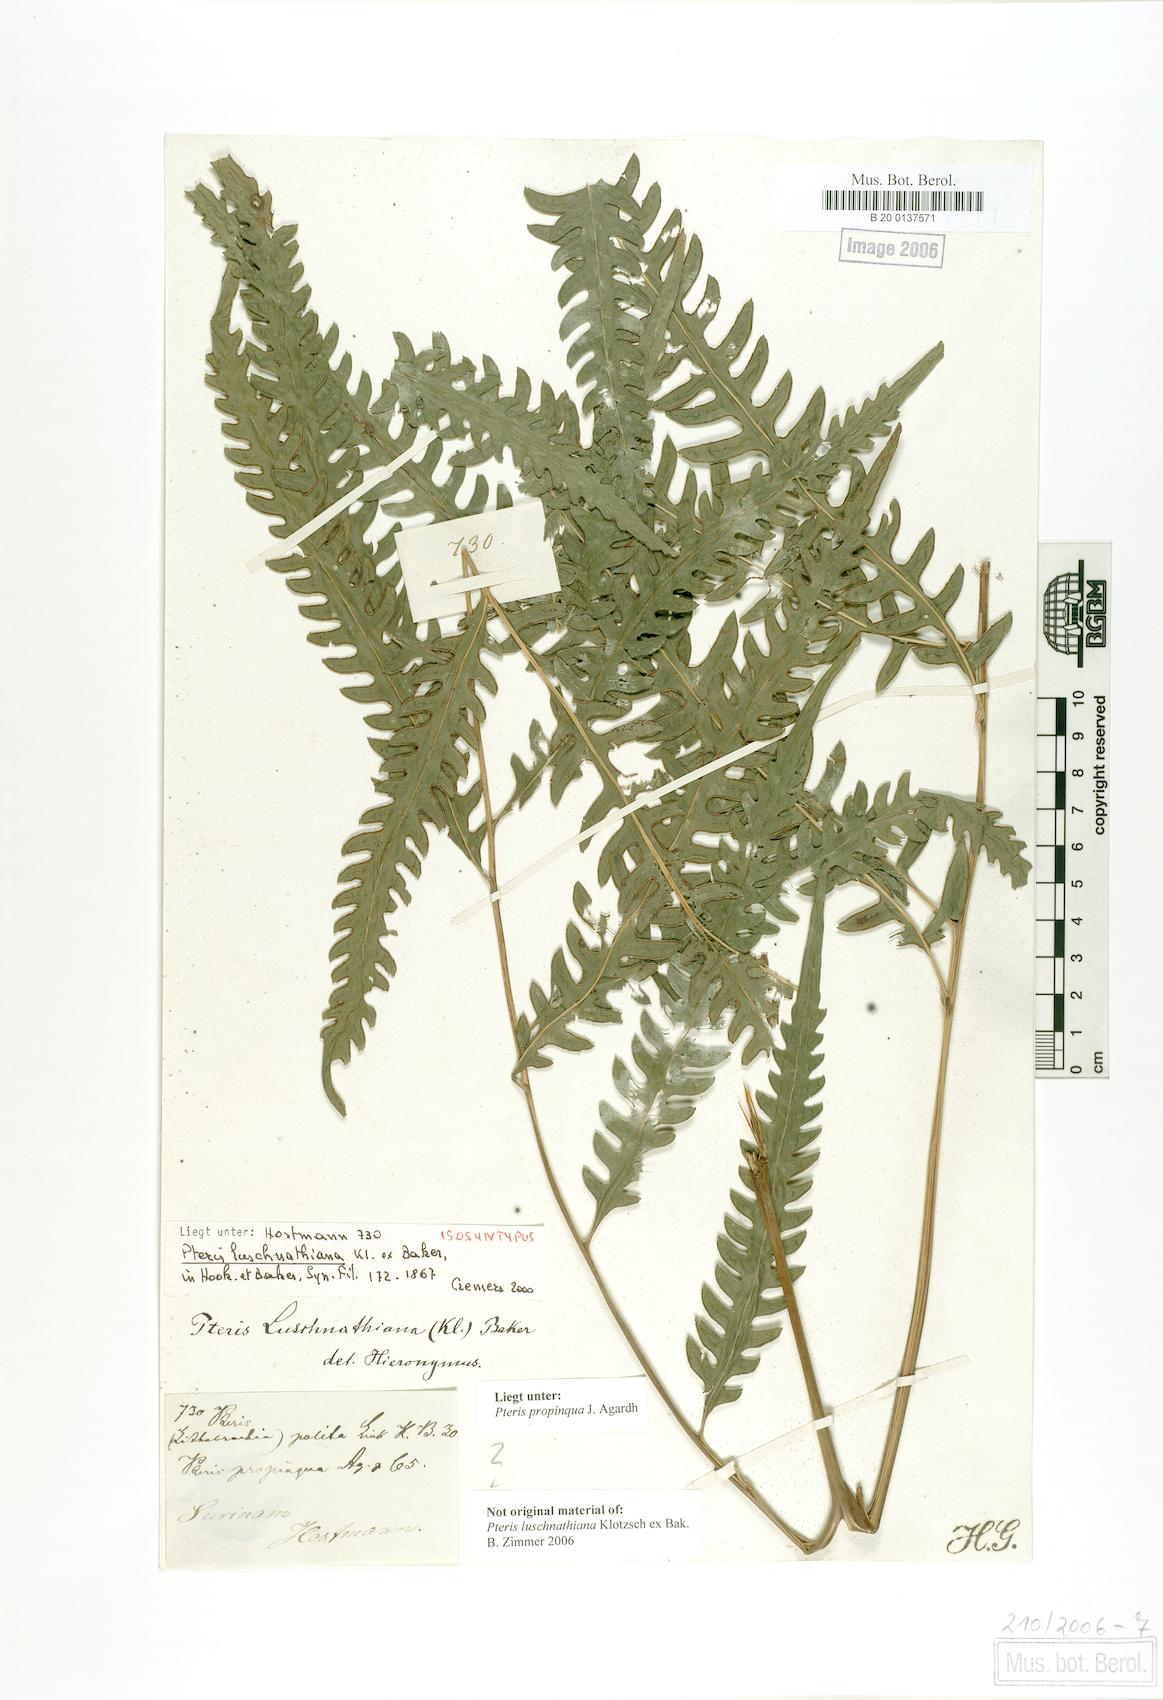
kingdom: Plantae
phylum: Tracheophyta
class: Polypodiopsida
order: Polypodiales
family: Pteridaceae
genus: Pteris
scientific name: Pteris propinqua
